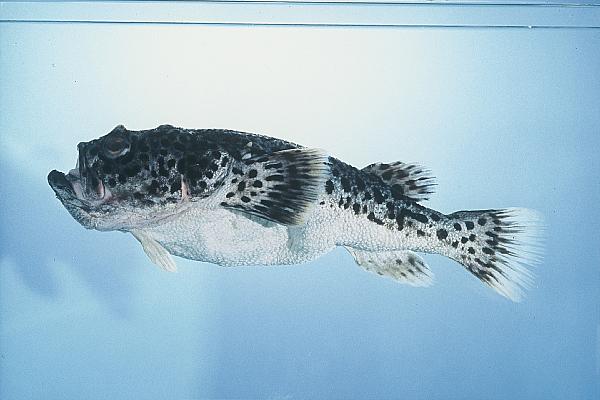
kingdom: Animalia
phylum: Chordata
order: Perciformes
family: Uranoscopidae
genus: Pleuroscopus
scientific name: Pleuroscopus pseudodorsalis
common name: Scaly stargazer
